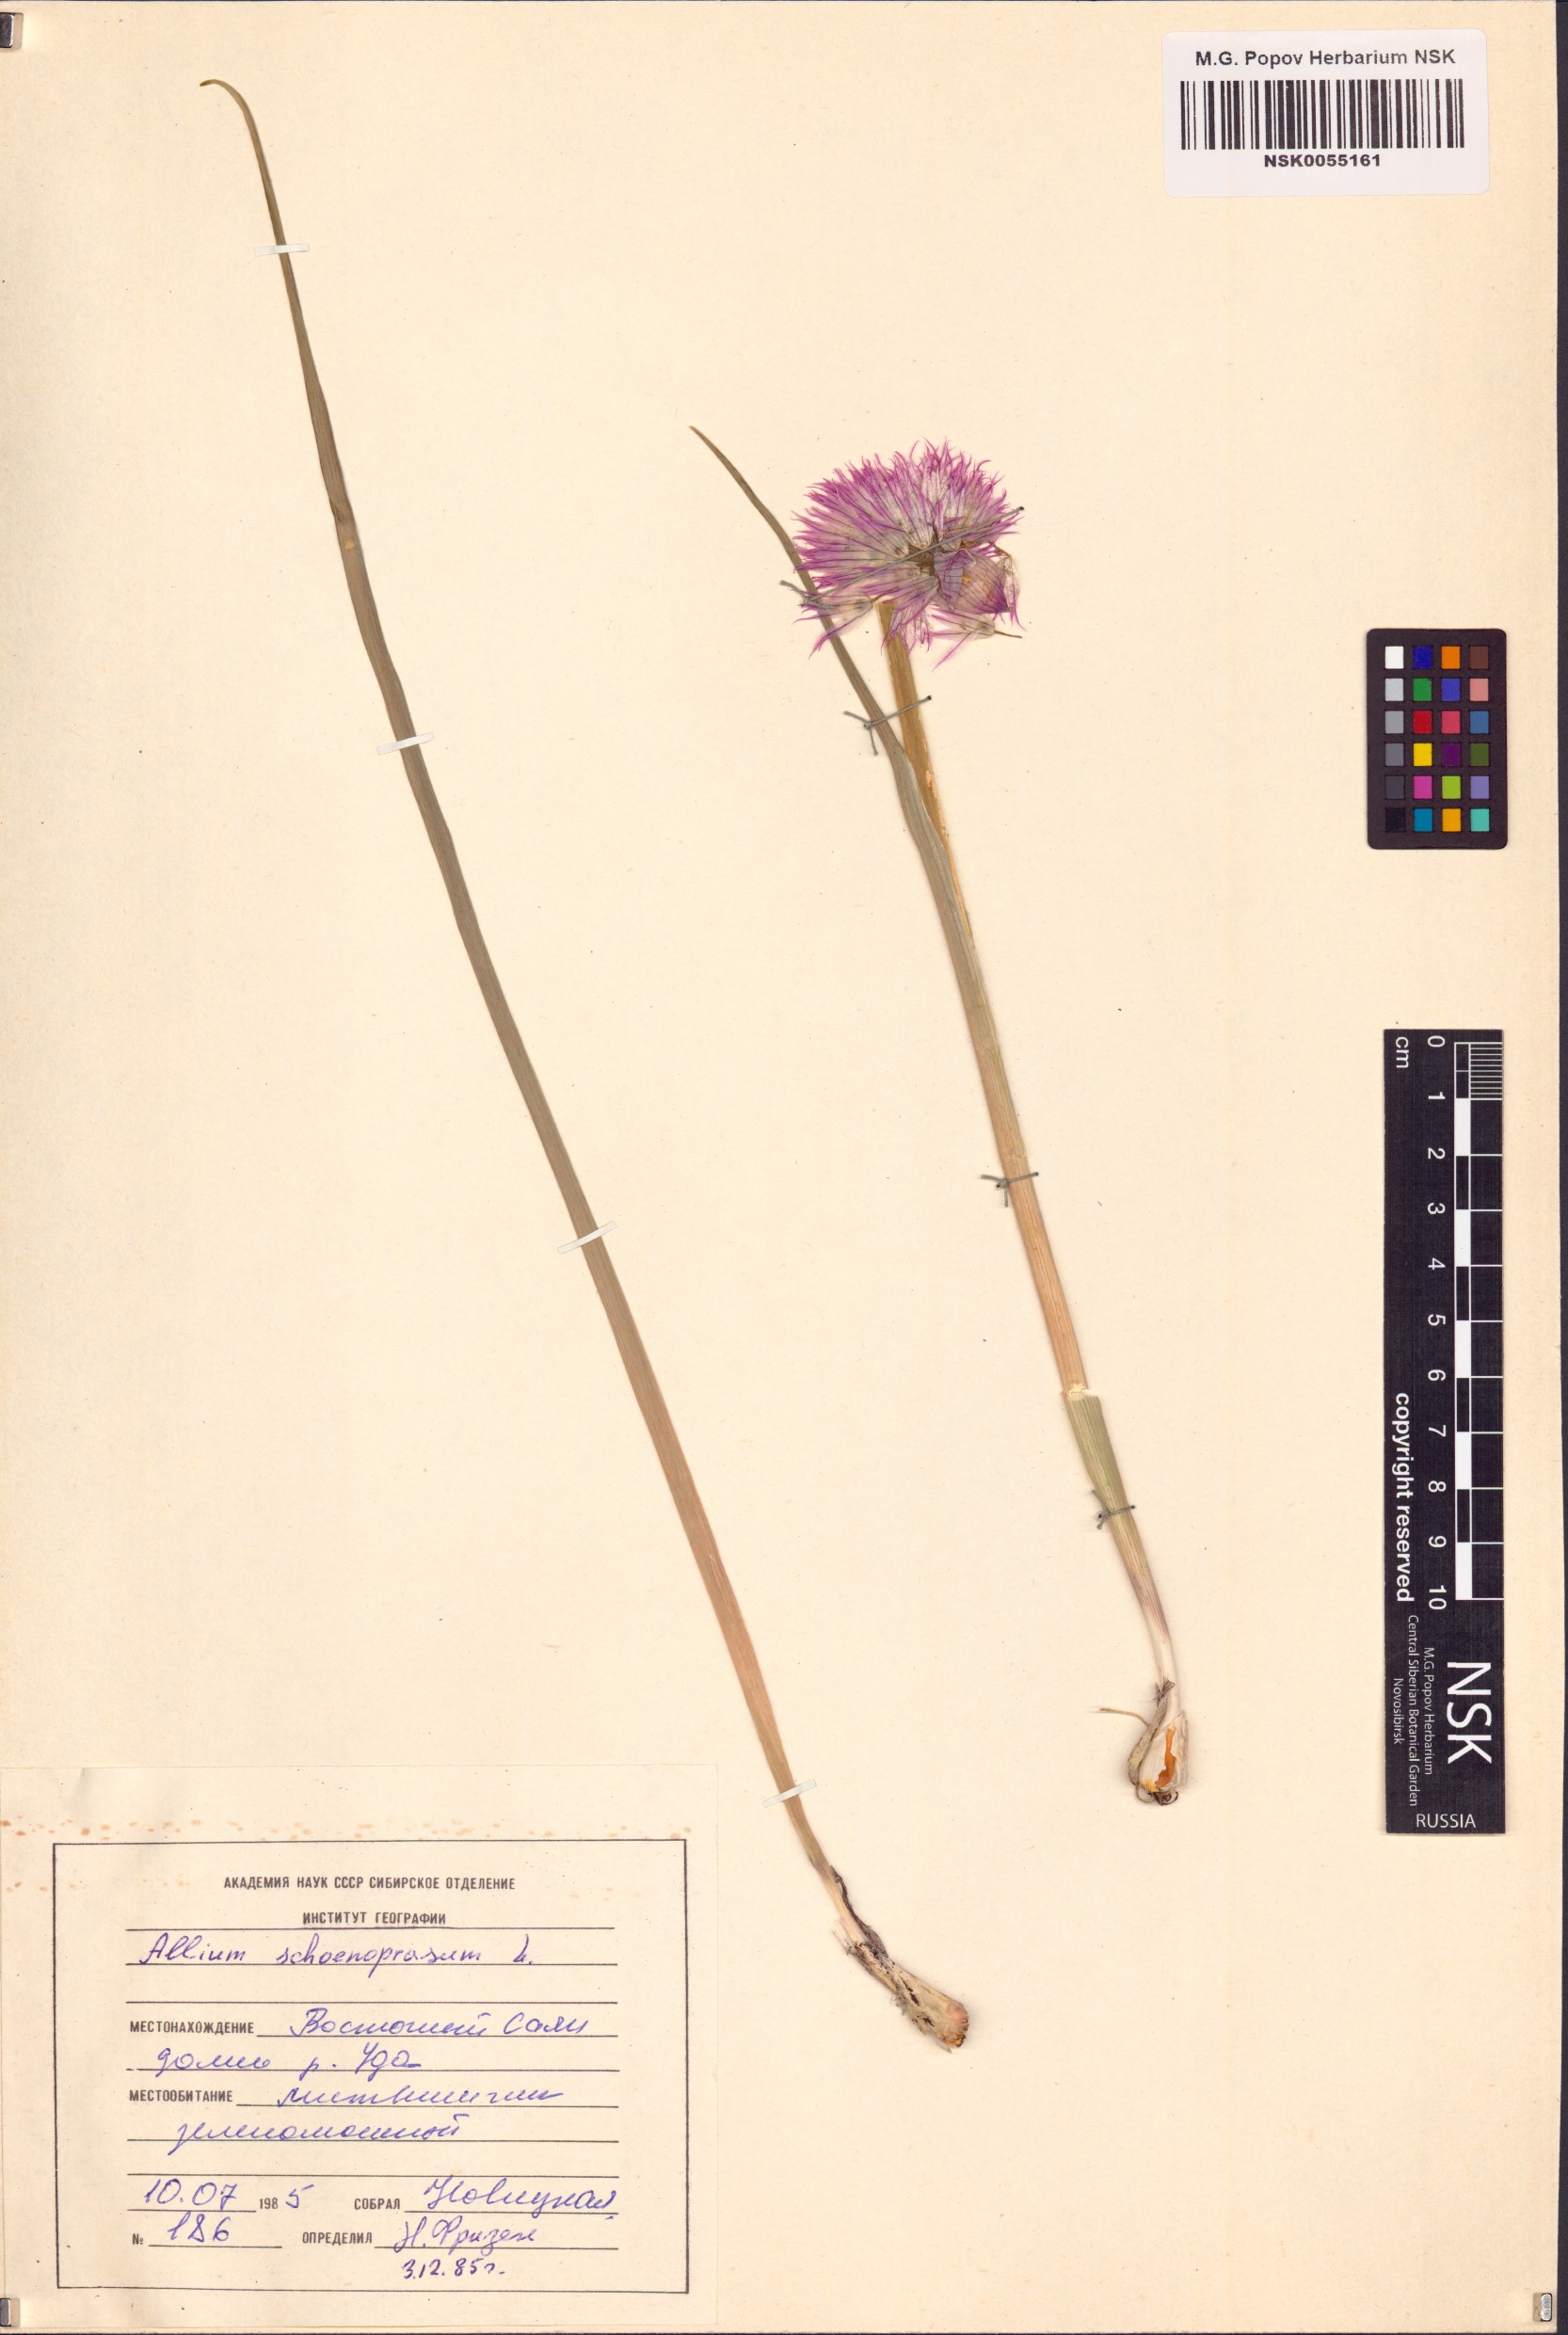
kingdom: Plantae
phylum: Tracheophyta
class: Liliopsida
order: Asparagales
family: Amaryllidaceae
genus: Allium
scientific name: Allium schoenoprasum
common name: Chives
